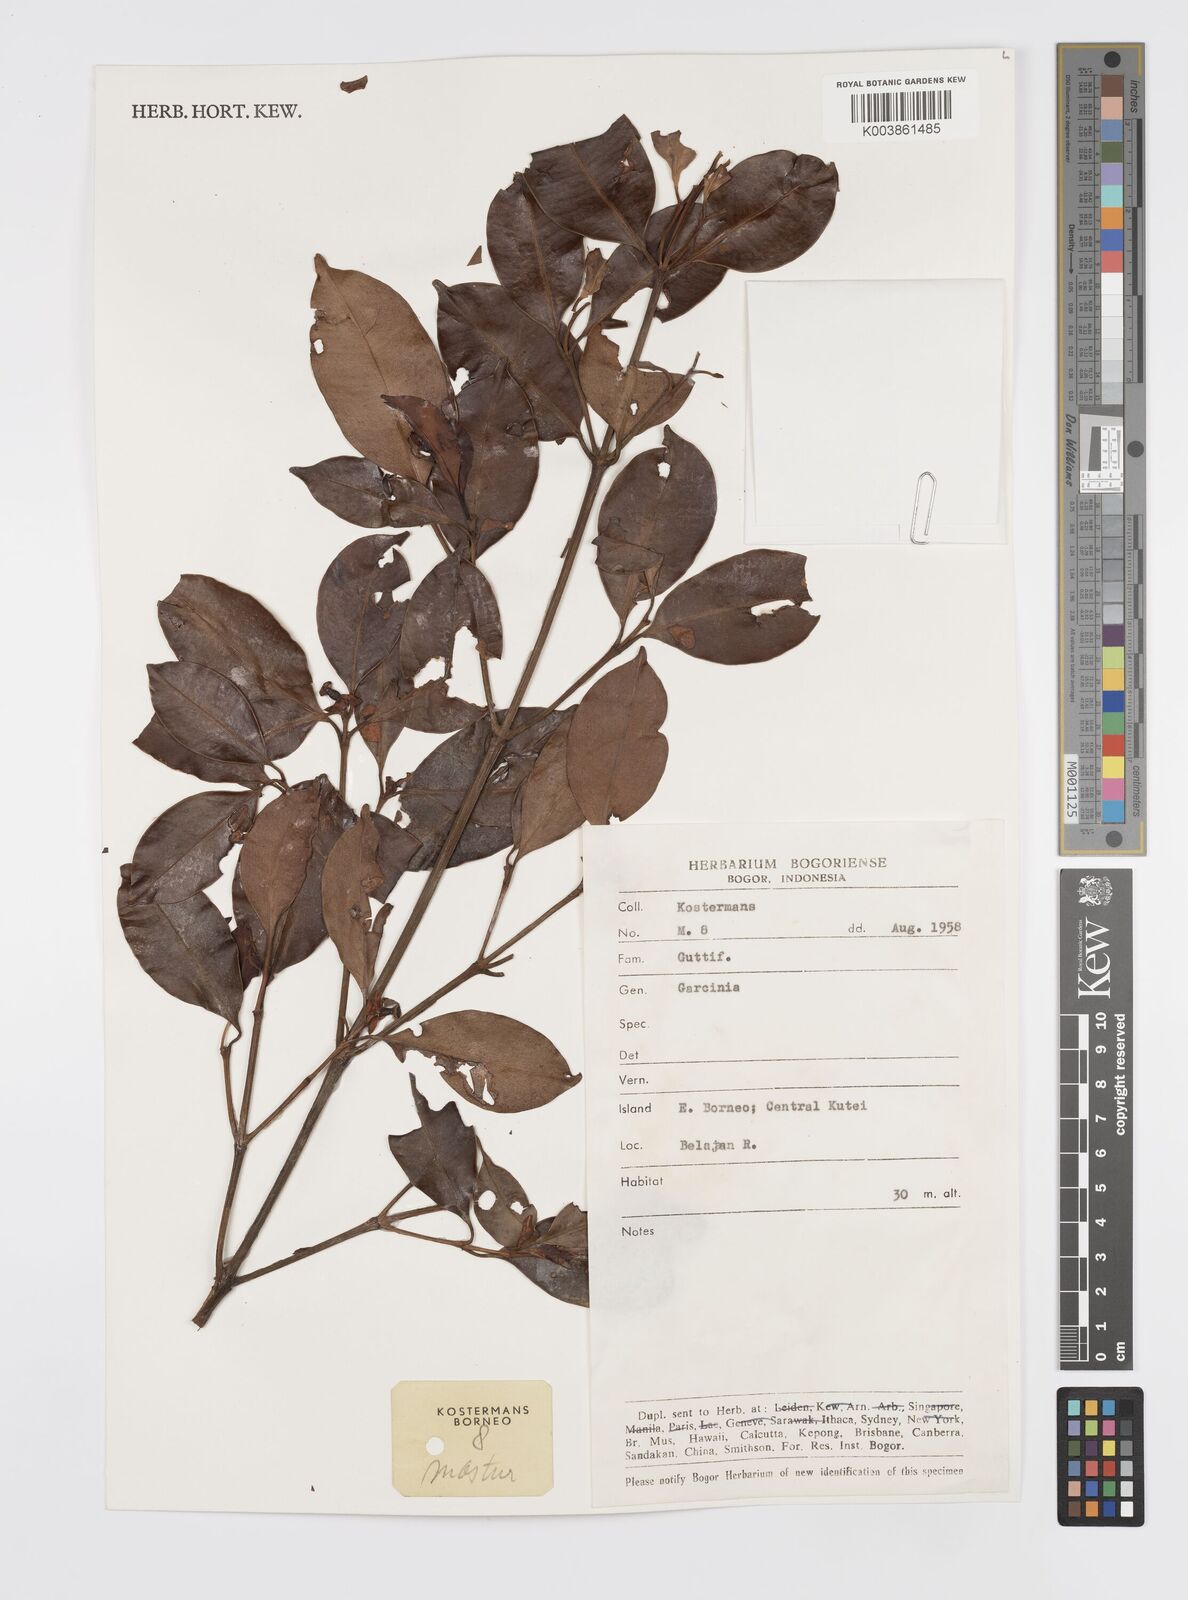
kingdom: Plantae
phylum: Tracheophyta
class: Magnoliopsida
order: Malpighiales
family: Clusiaceae
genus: Garcinia
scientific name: Garcinia
